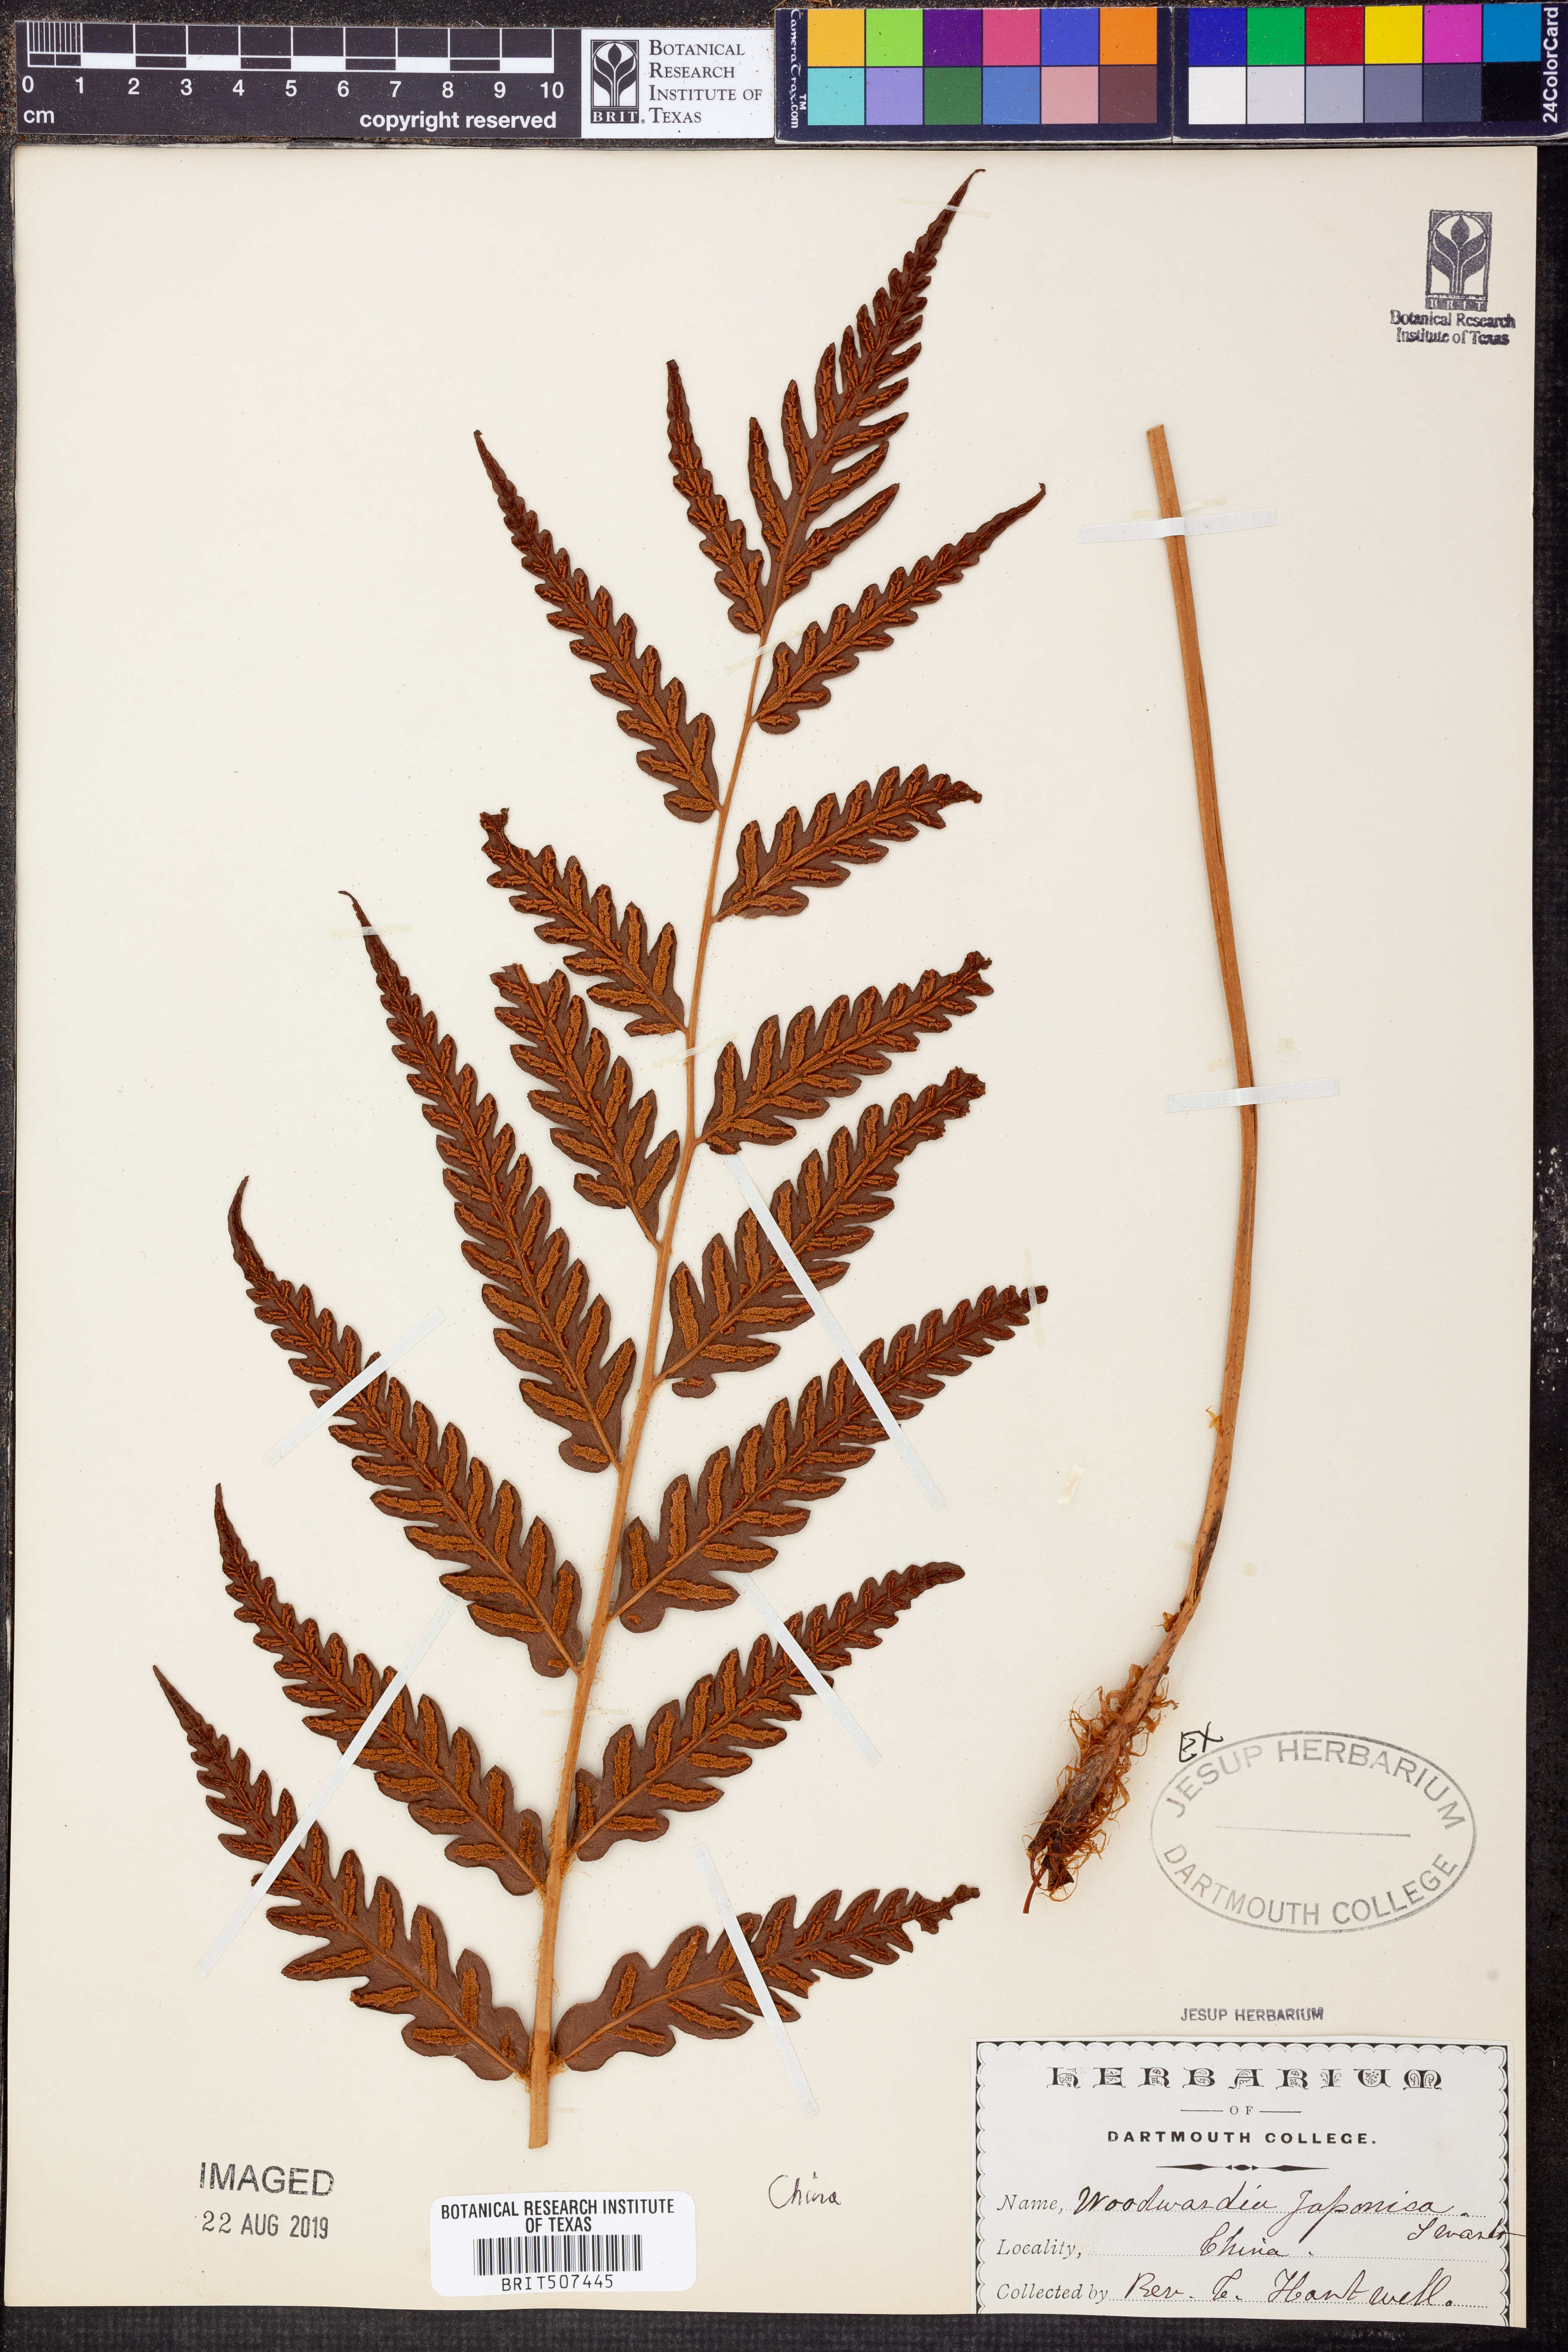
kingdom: Plantae
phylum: Tracheophyta
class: Polypodiopsida
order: Polypodiales
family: Blechnaceae
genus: Woodwardia
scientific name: Woodwardia japonica
